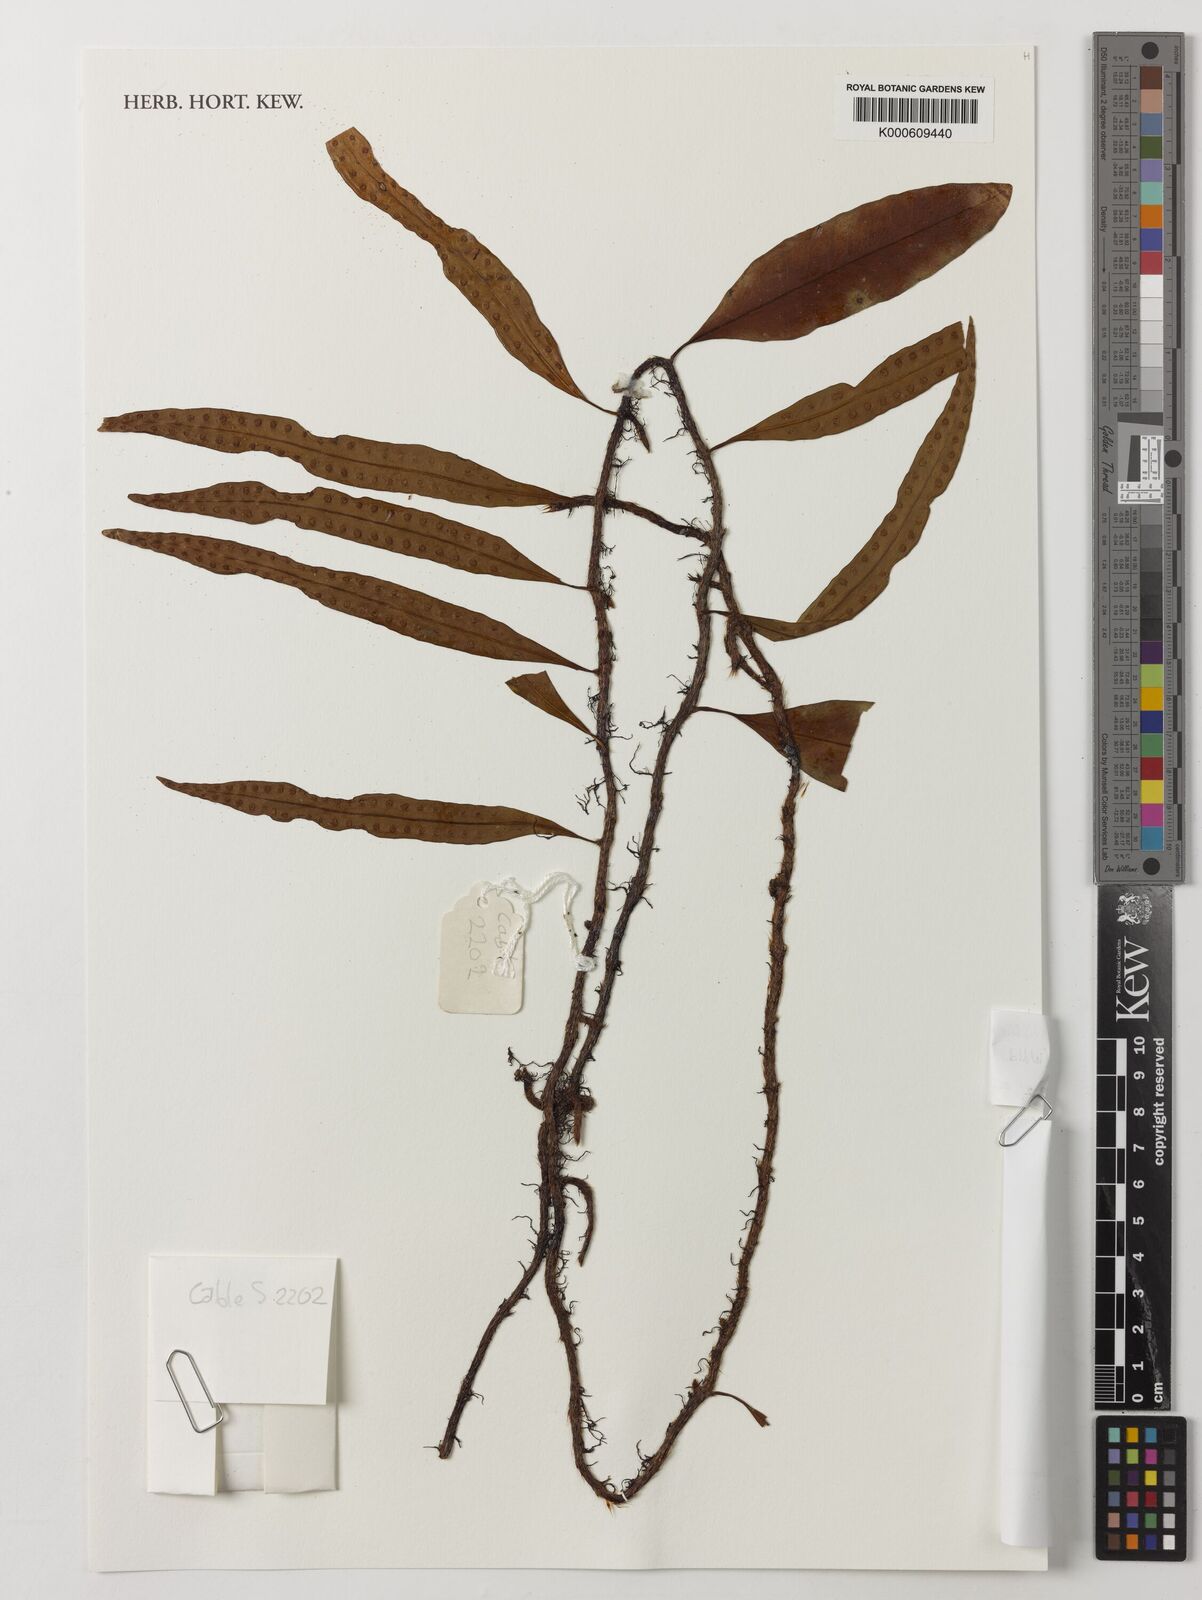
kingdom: Plantae
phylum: Tracheophyta
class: Polypodiopsida
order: Polypodiales
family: Polypodiaceae
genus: Microgramma
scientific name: Microgramma mauritiana
